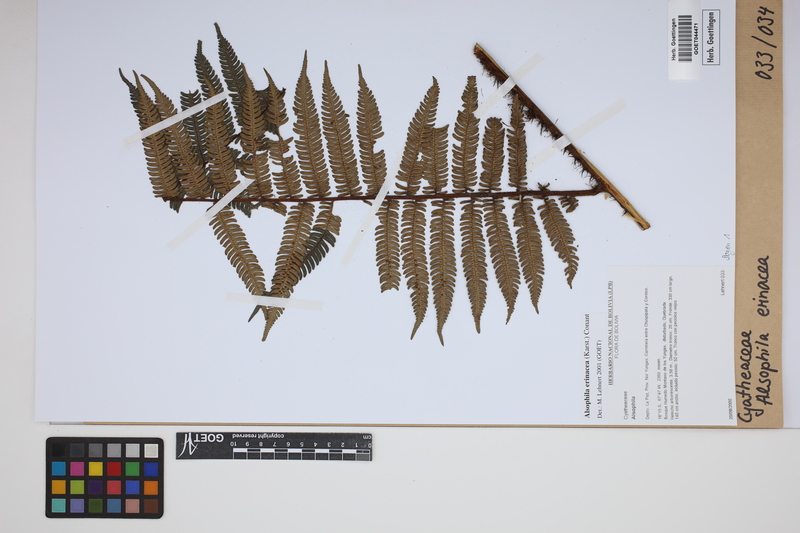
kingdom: Plantae
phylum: Tracheophyta
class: Polypodiopsida
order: Cyatheales
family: Cyatheaceae
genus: Alsophila
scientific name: Alsophila erinacea
